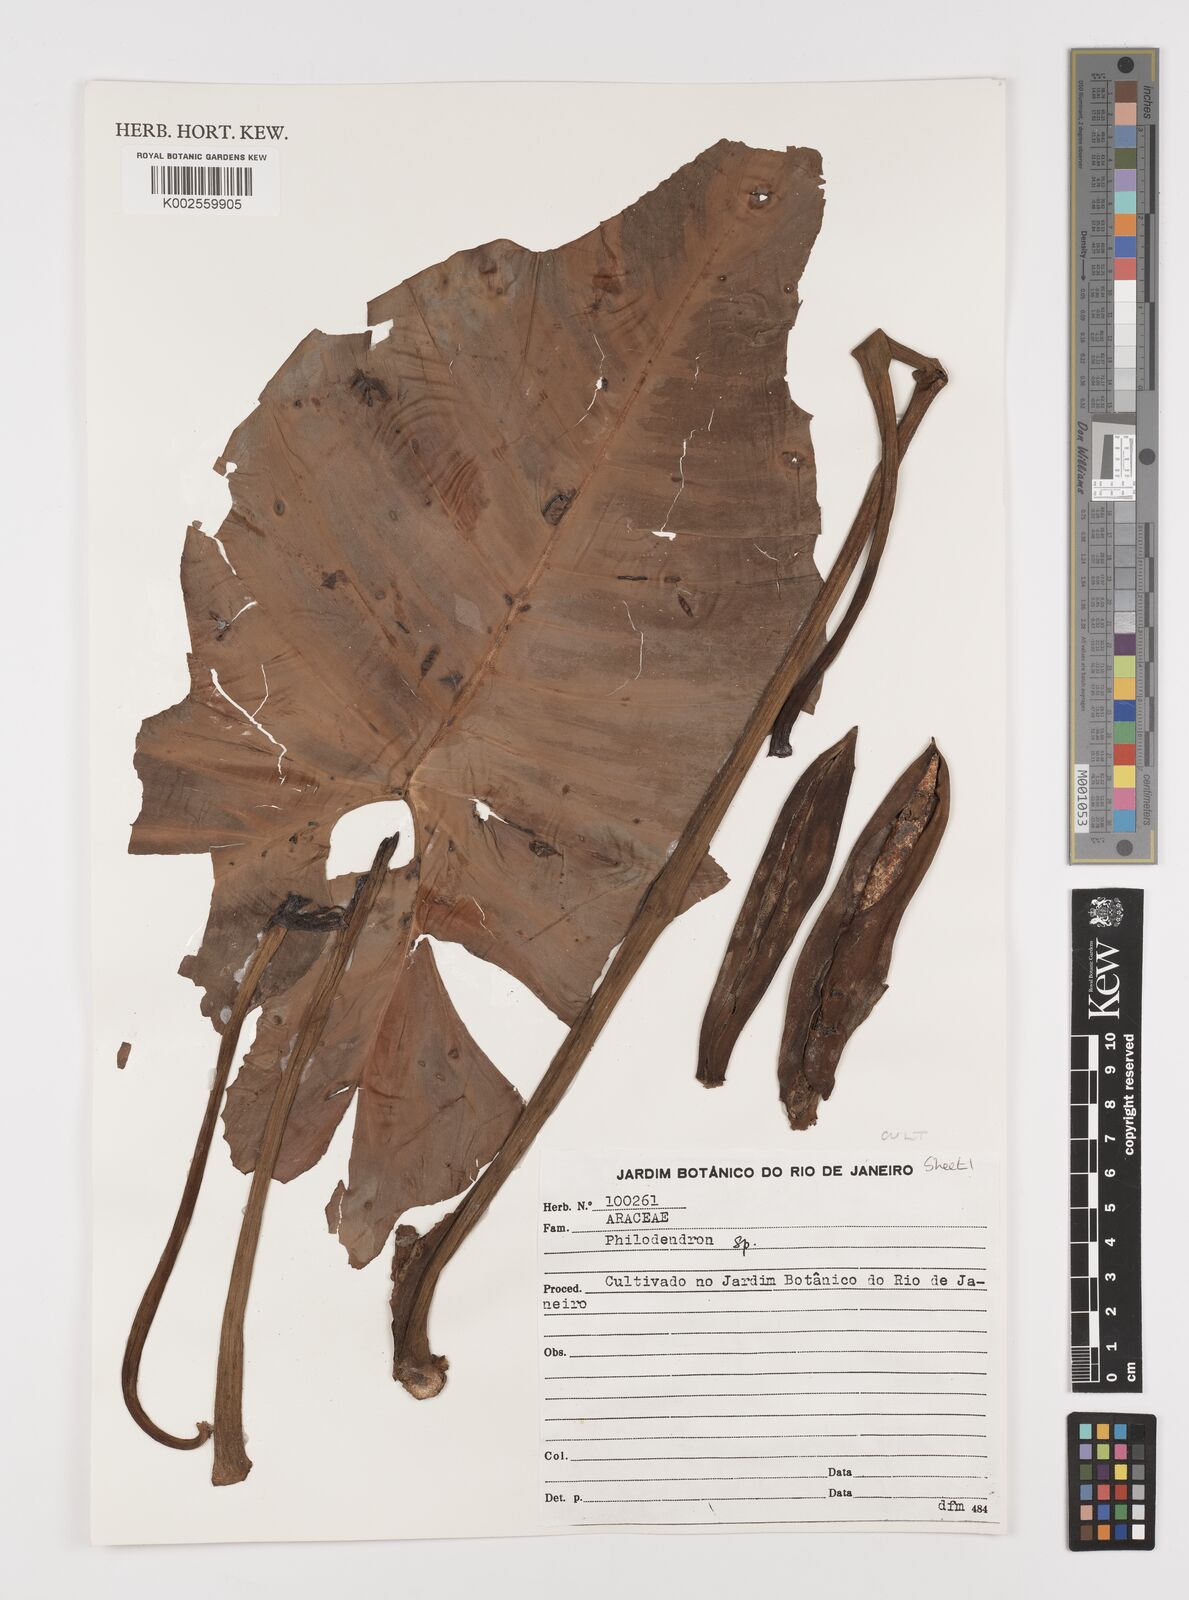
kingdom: Plantae
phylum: Tracheophyta
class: Liliopsida
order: Alismatales
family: Araceae
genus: Philodendron
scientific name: Philodendron
